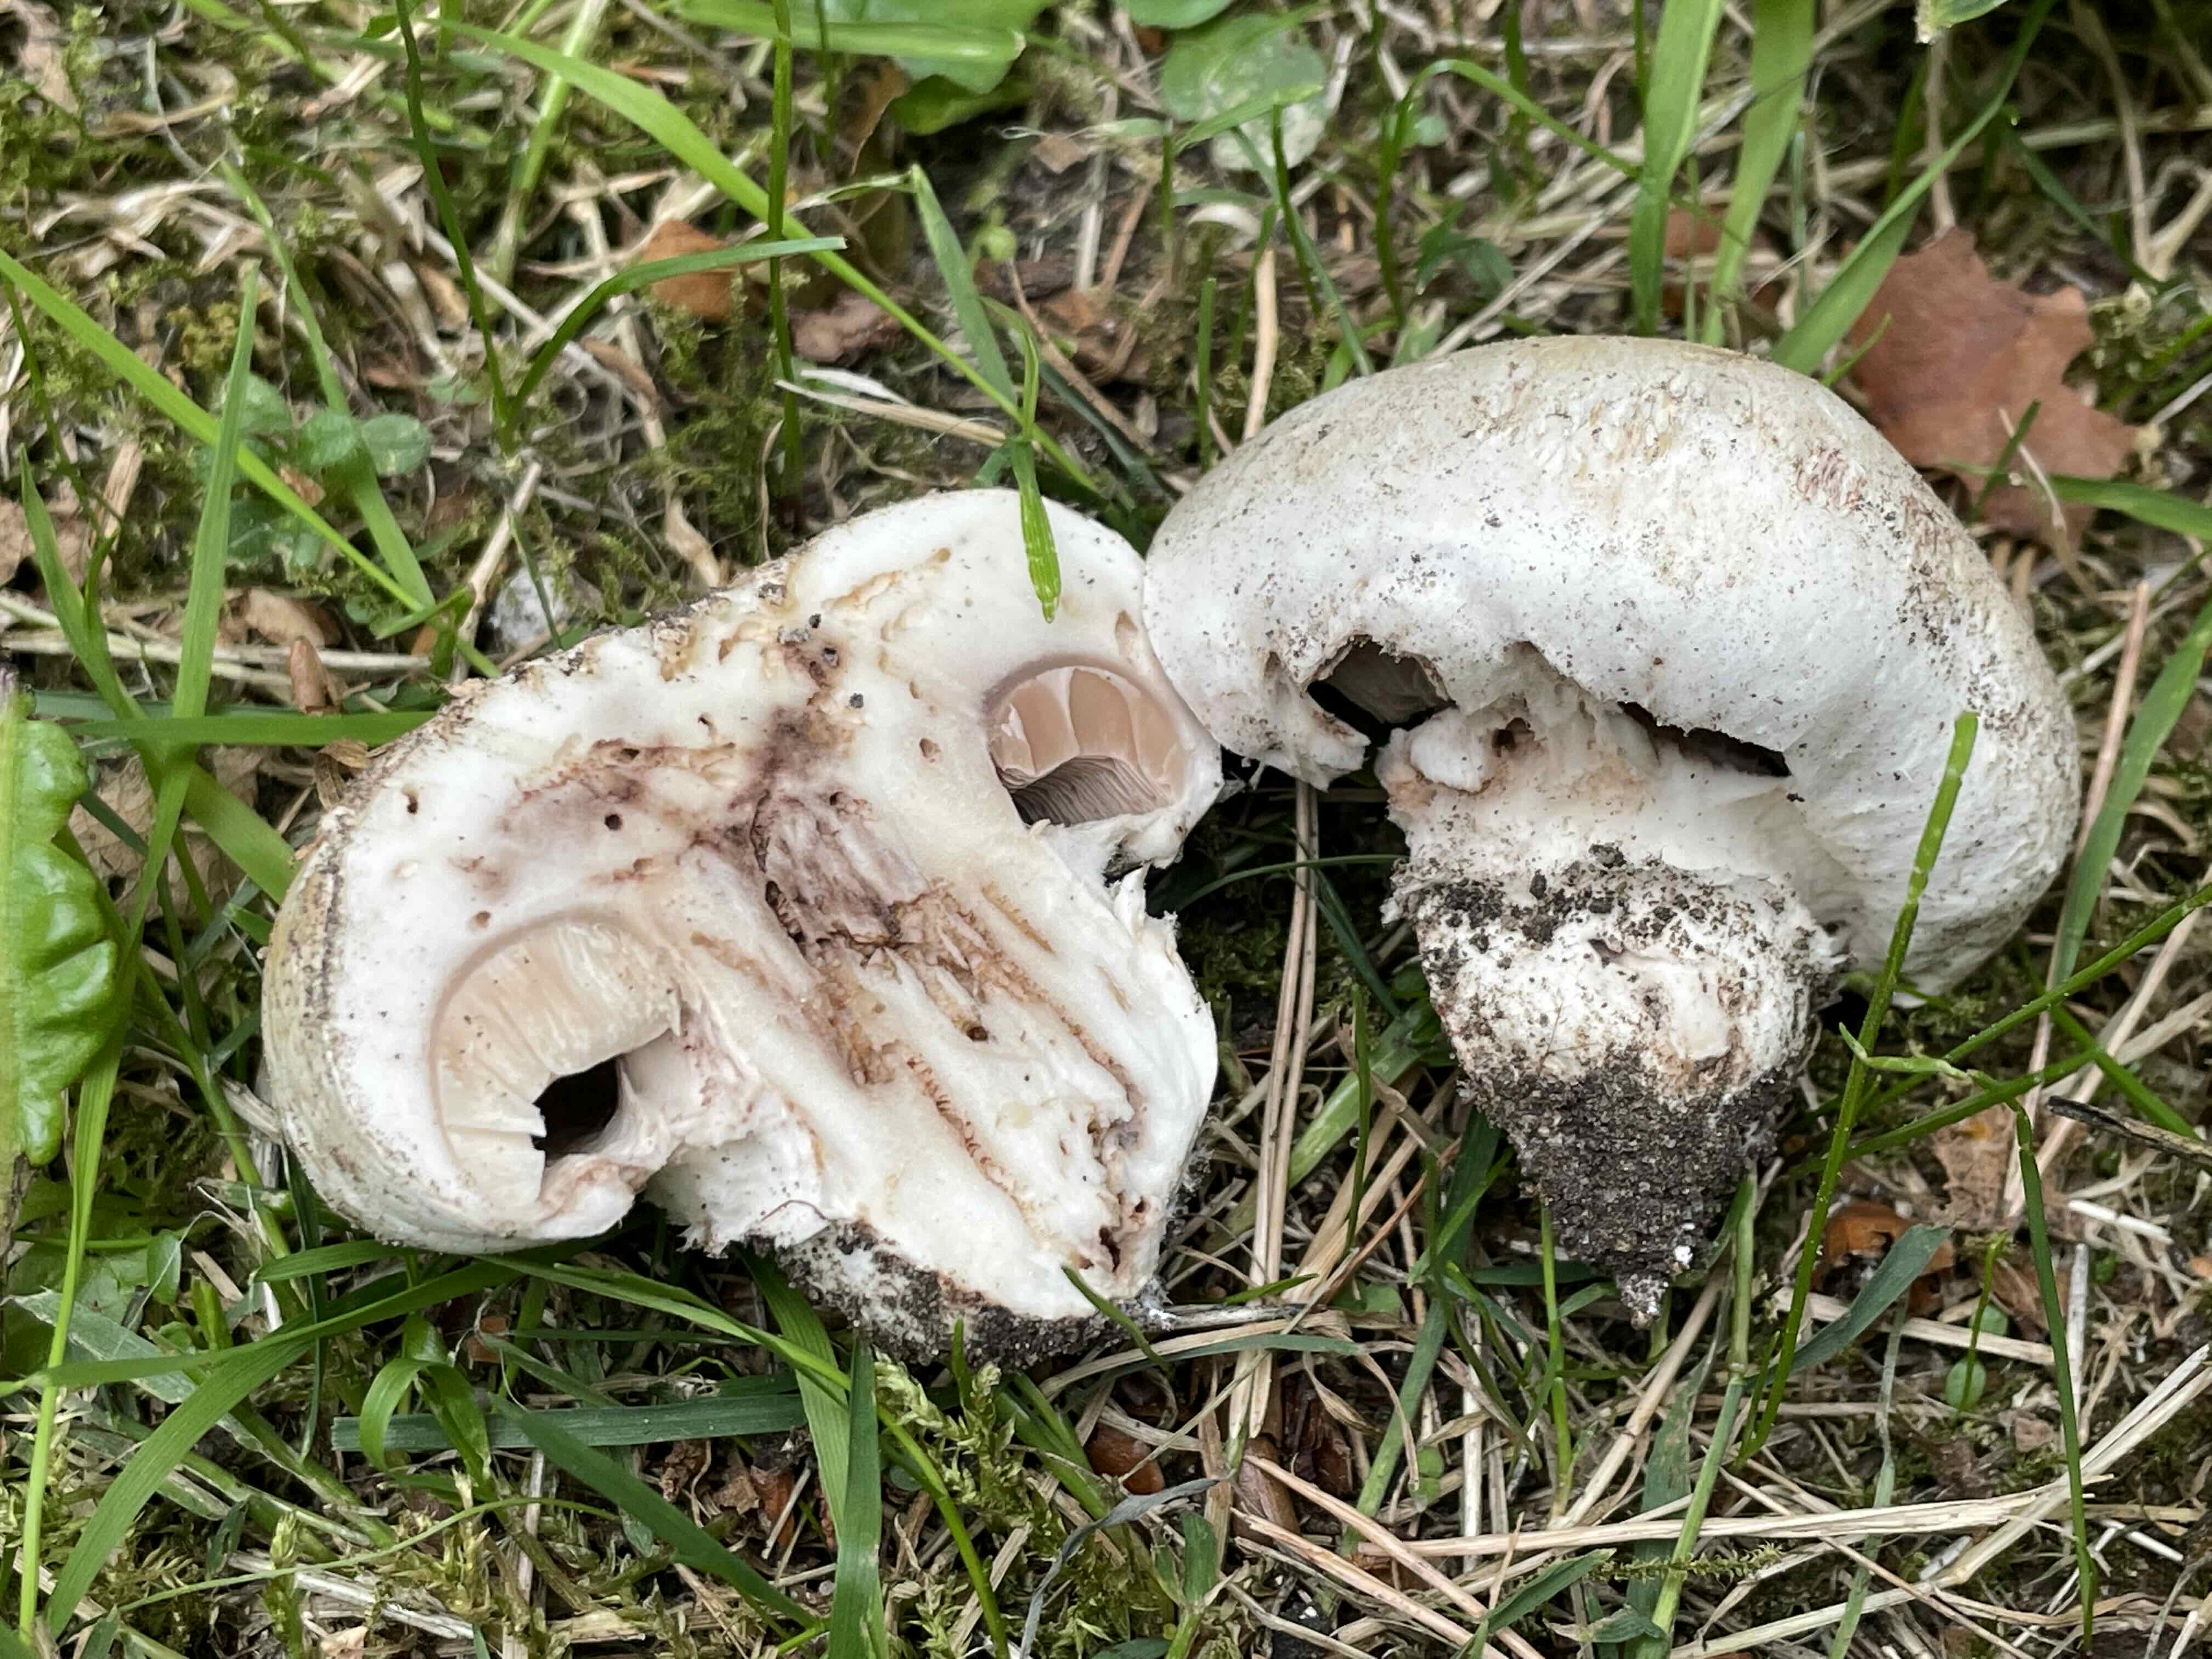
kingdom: Fungi
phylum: Basidiomycota
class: Agaricomycetes
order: Agaricales
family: Agaricaceae
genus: Agaricus
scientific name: Agaricus bitorquis
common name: vej-champignon
